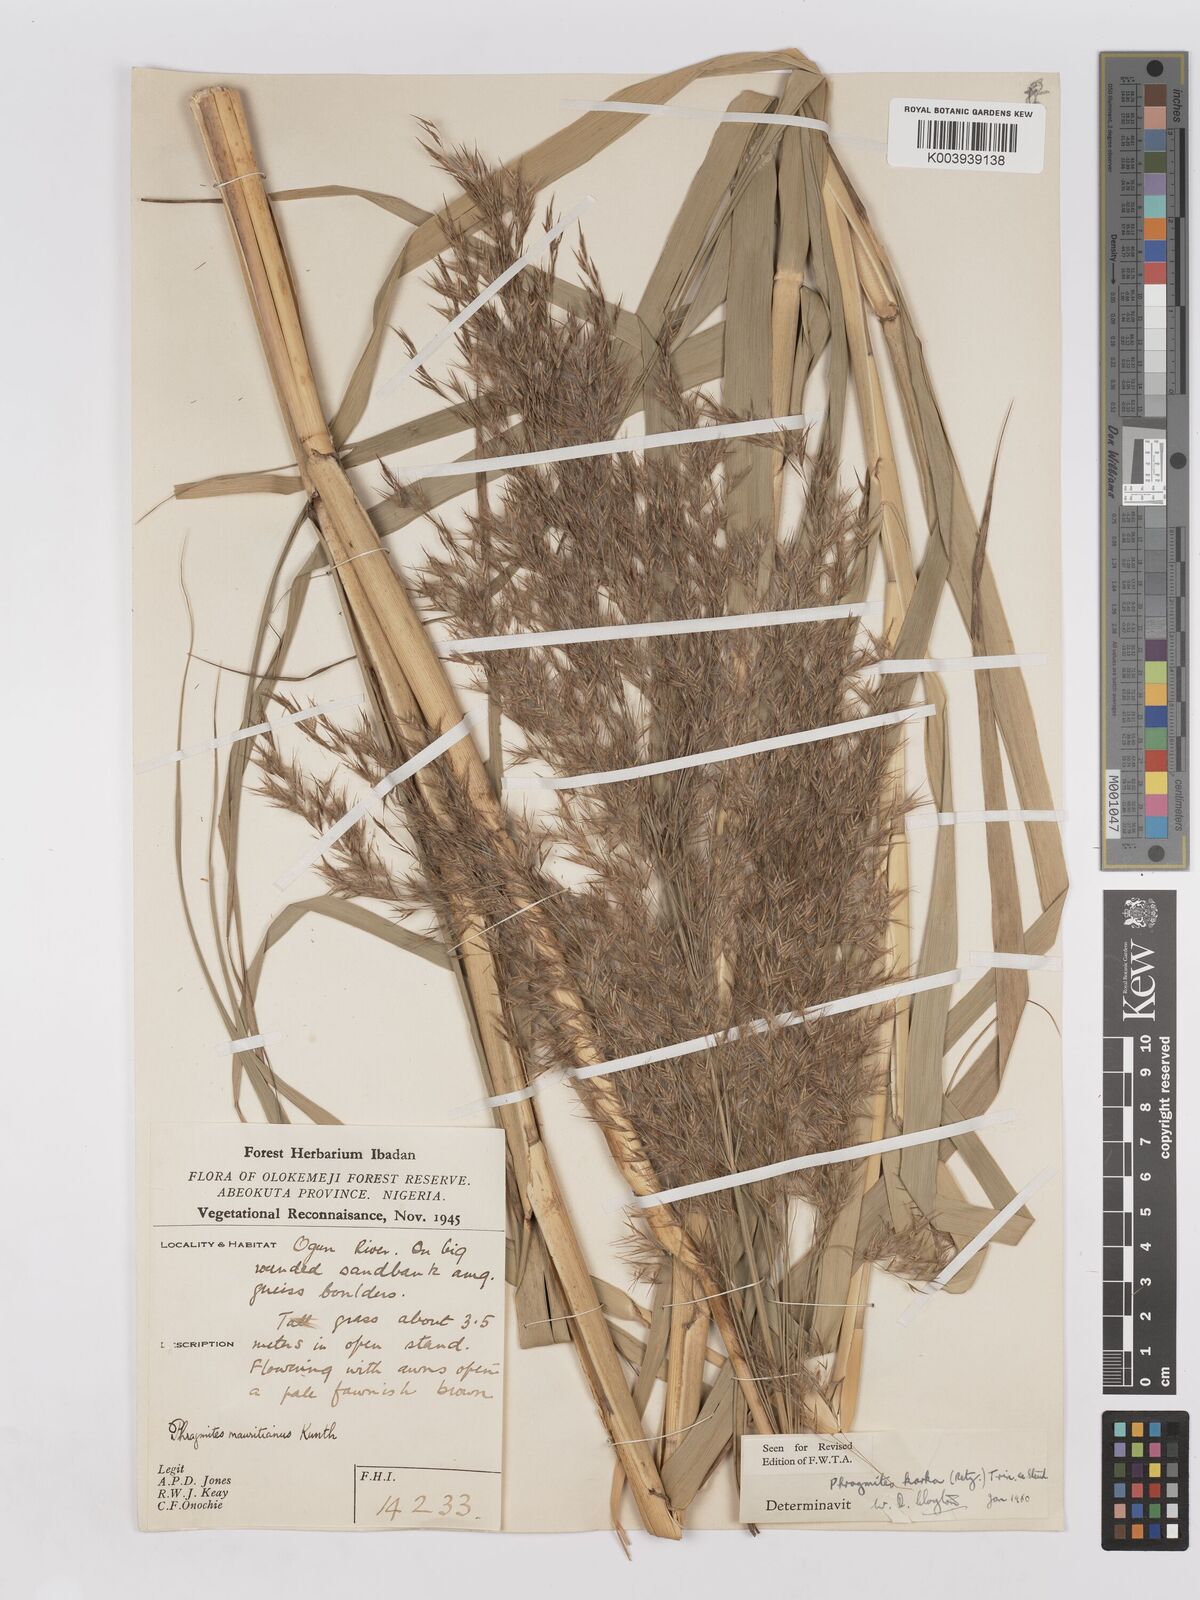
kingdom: Plantae
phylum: Tracheophyta
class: Liliopsida
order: Poales
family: Poaceae
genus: Phragmites
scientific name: Phragmites karka
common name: Tropical reed
